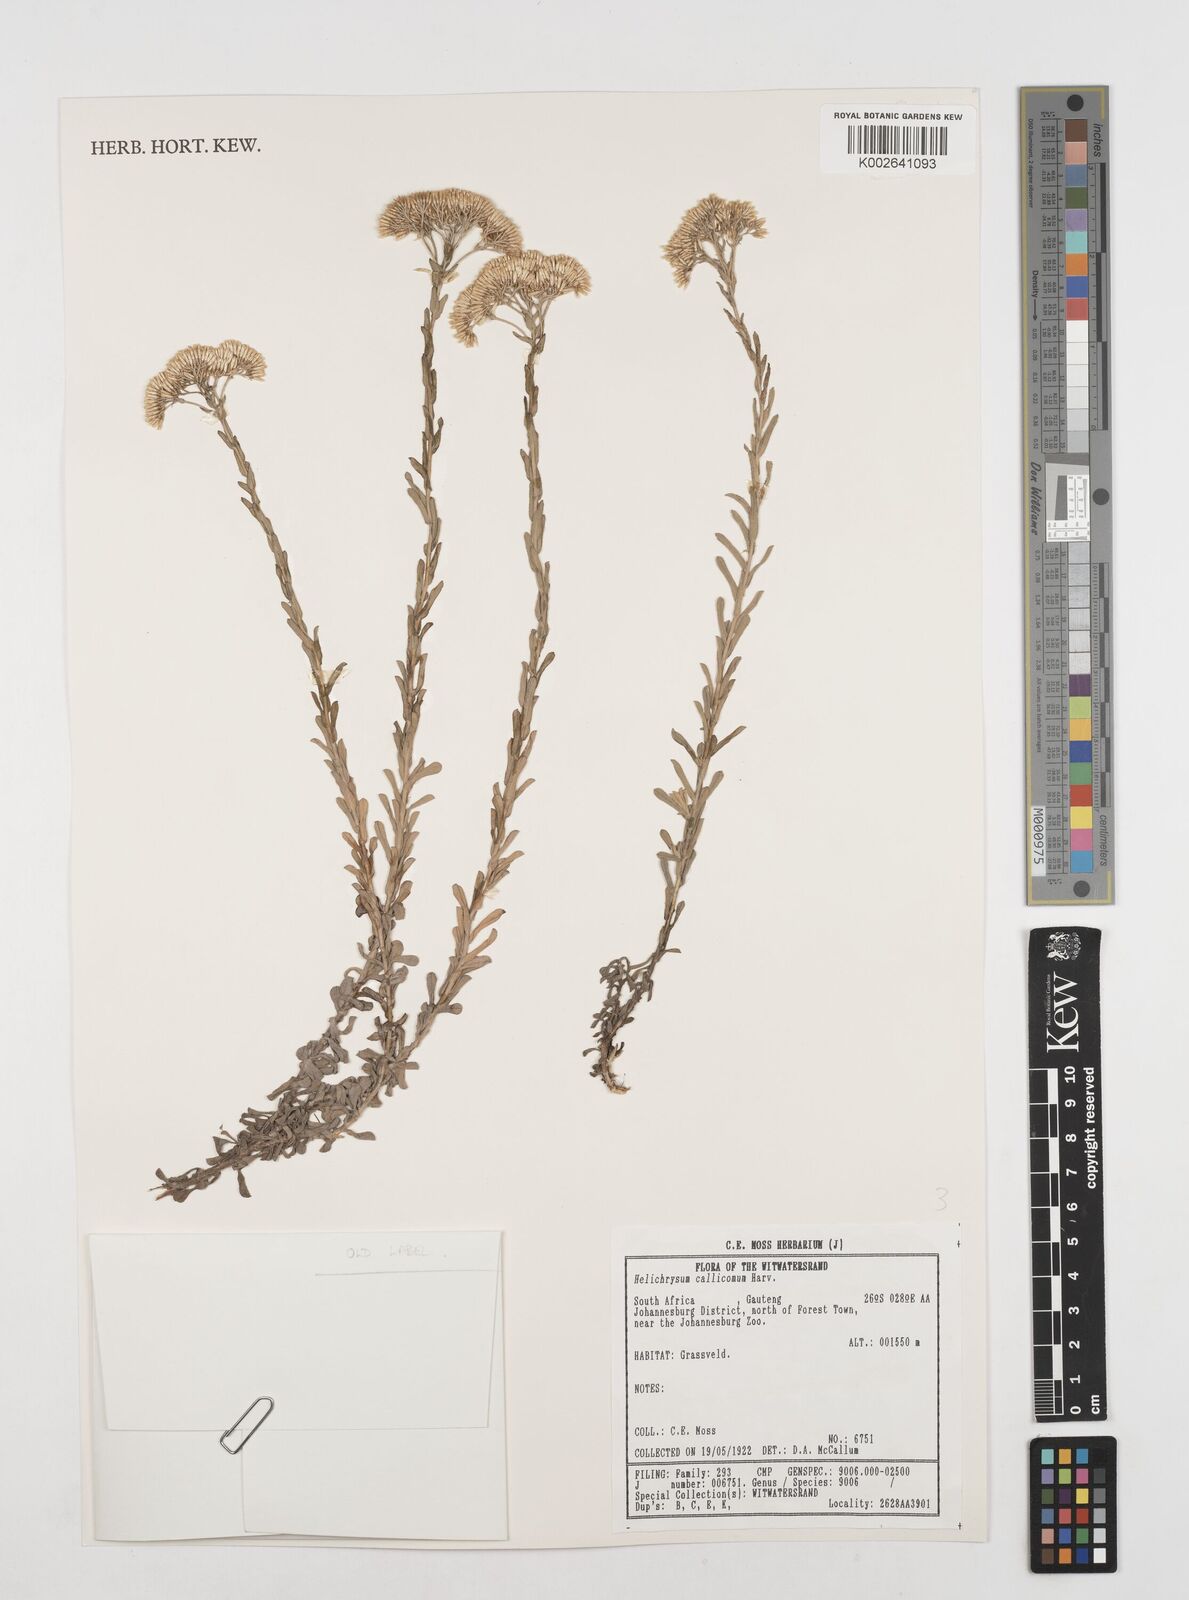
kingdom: Plantae
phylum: Tracheophyta
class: Magnoliopsida
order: Asterales
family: Asteraceae
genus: Helichrysum
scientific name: Helichrysum callicomum
